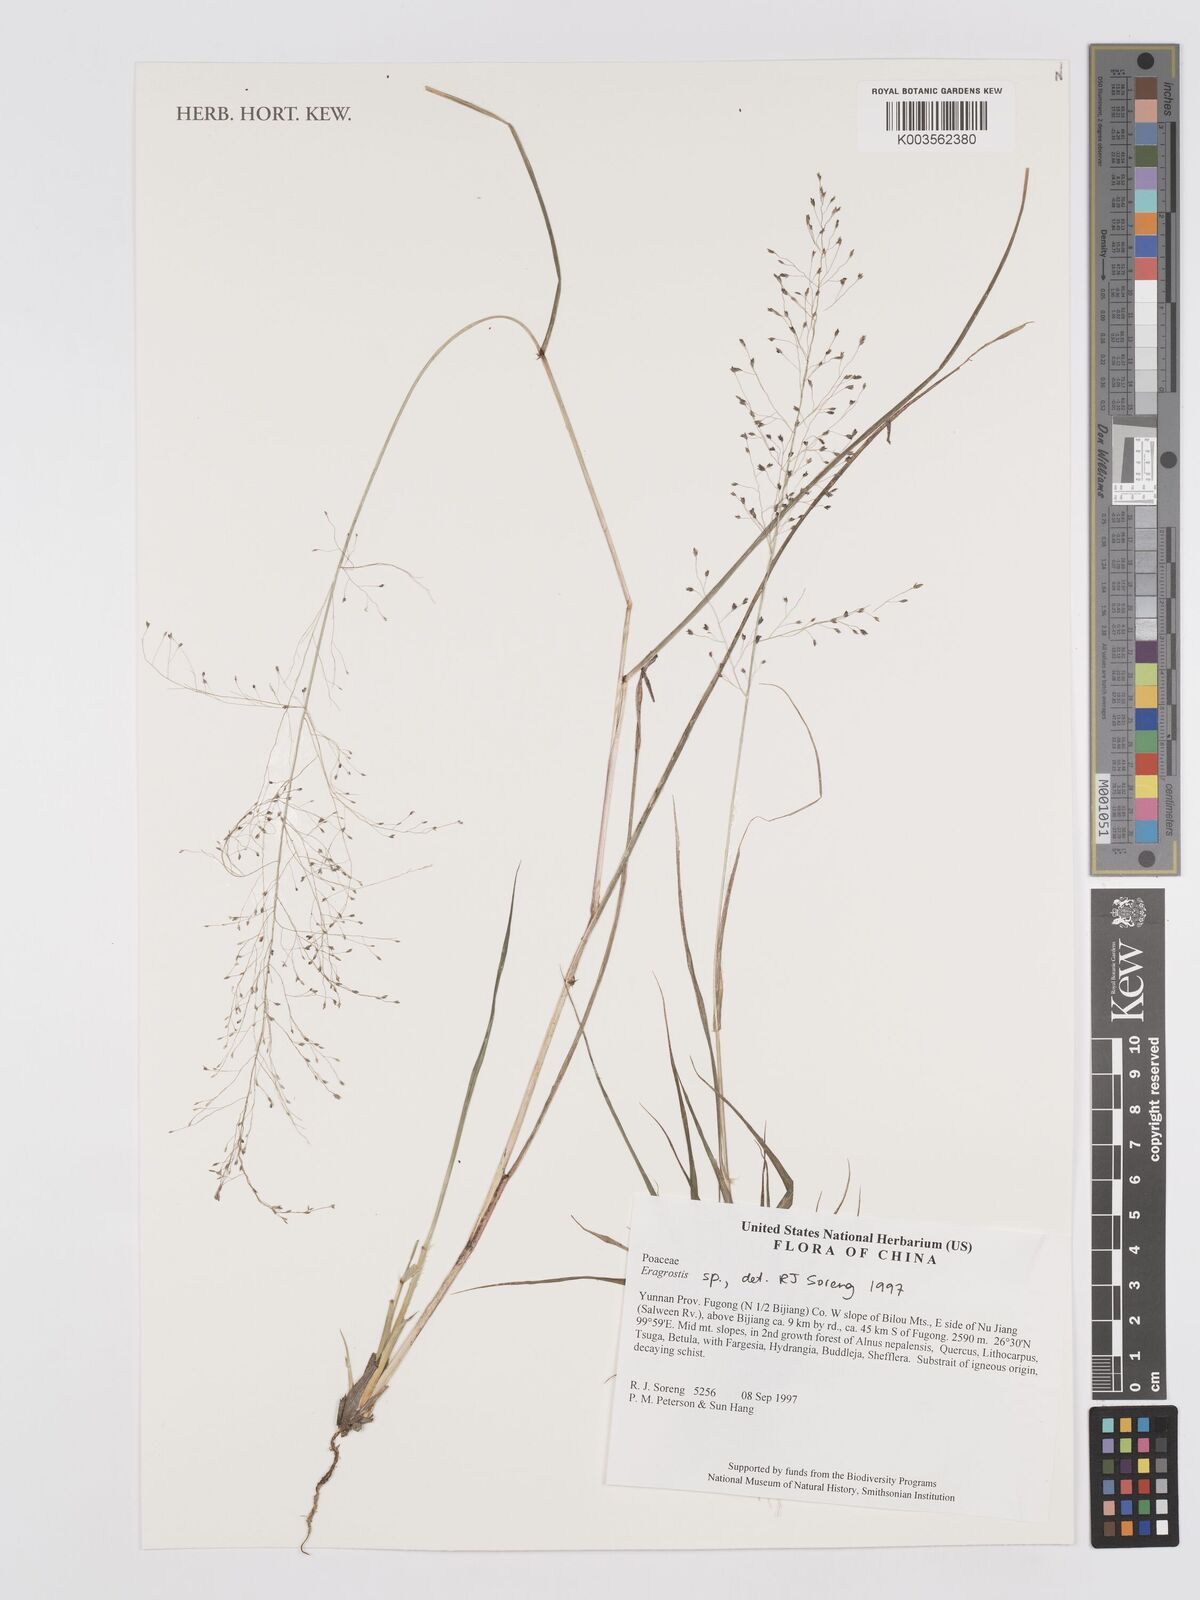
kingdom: Plantae
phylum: Tracheophyta
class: Liliopsida
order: Poales
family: Poaceae
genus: Eragrostis
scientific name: Eragrostis
